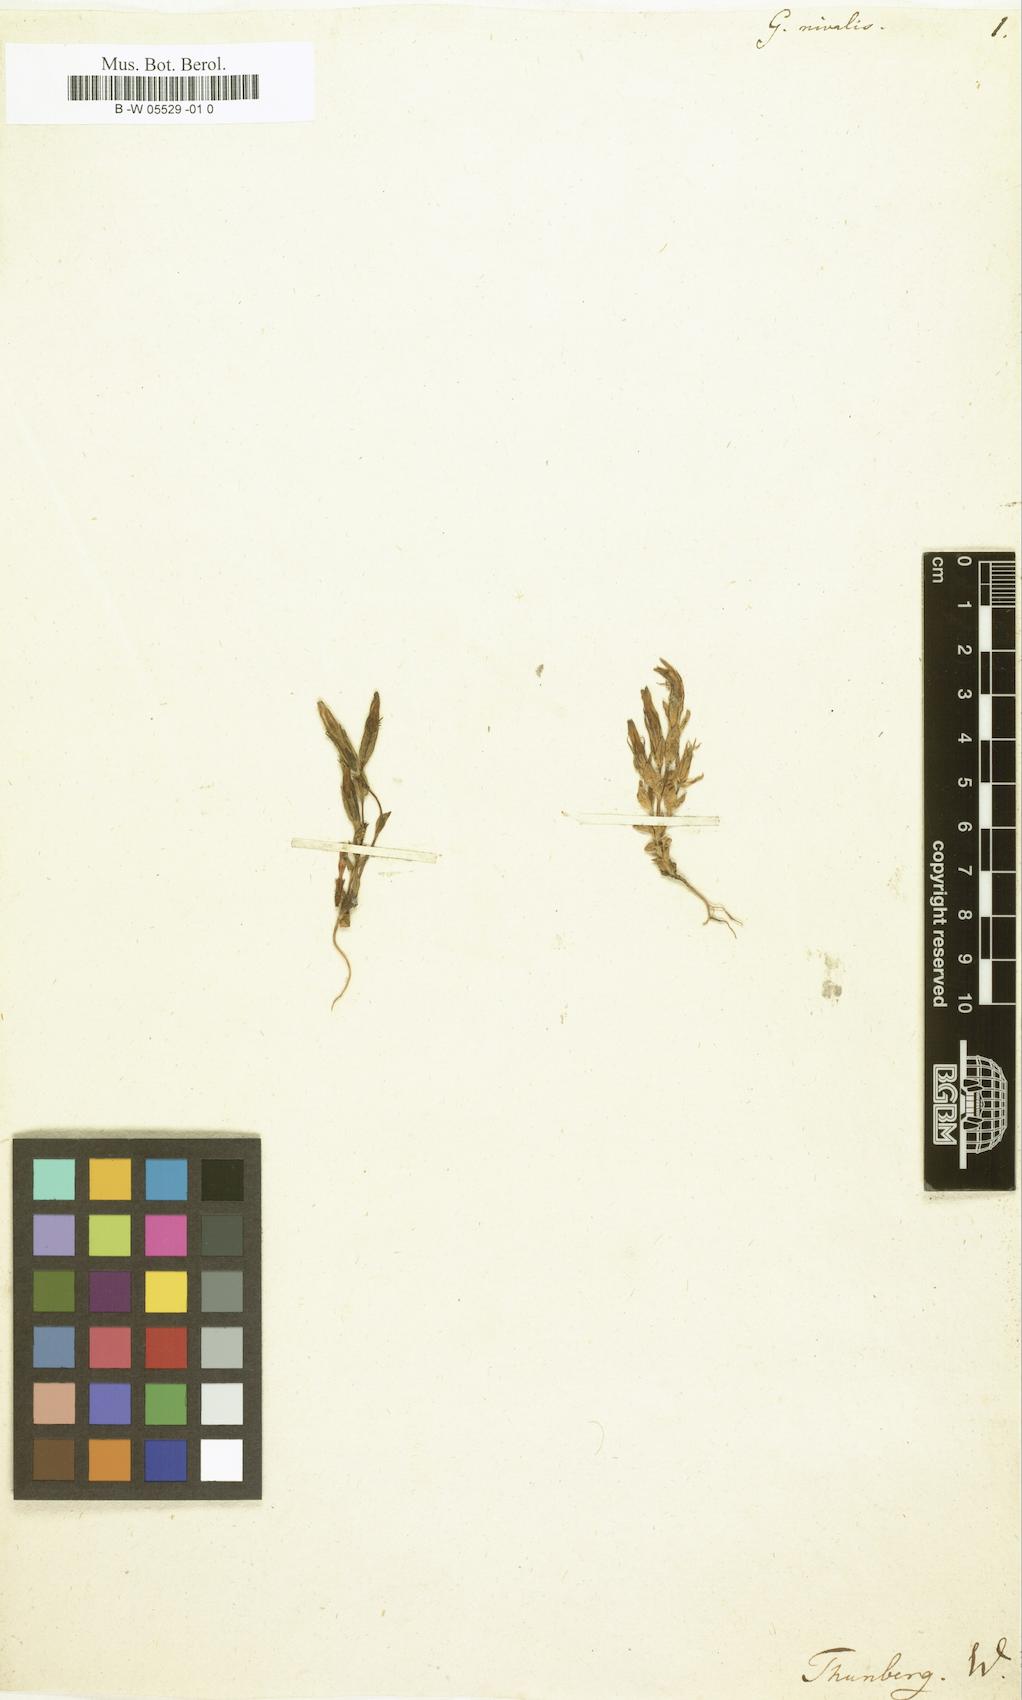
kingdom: Plantae
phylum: Tracheophyta
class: Magnoliopsida
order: Gentianales
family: Gentianaceae
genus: Gentiana
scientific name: Gentiana nivalis
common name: Alpine gentian
